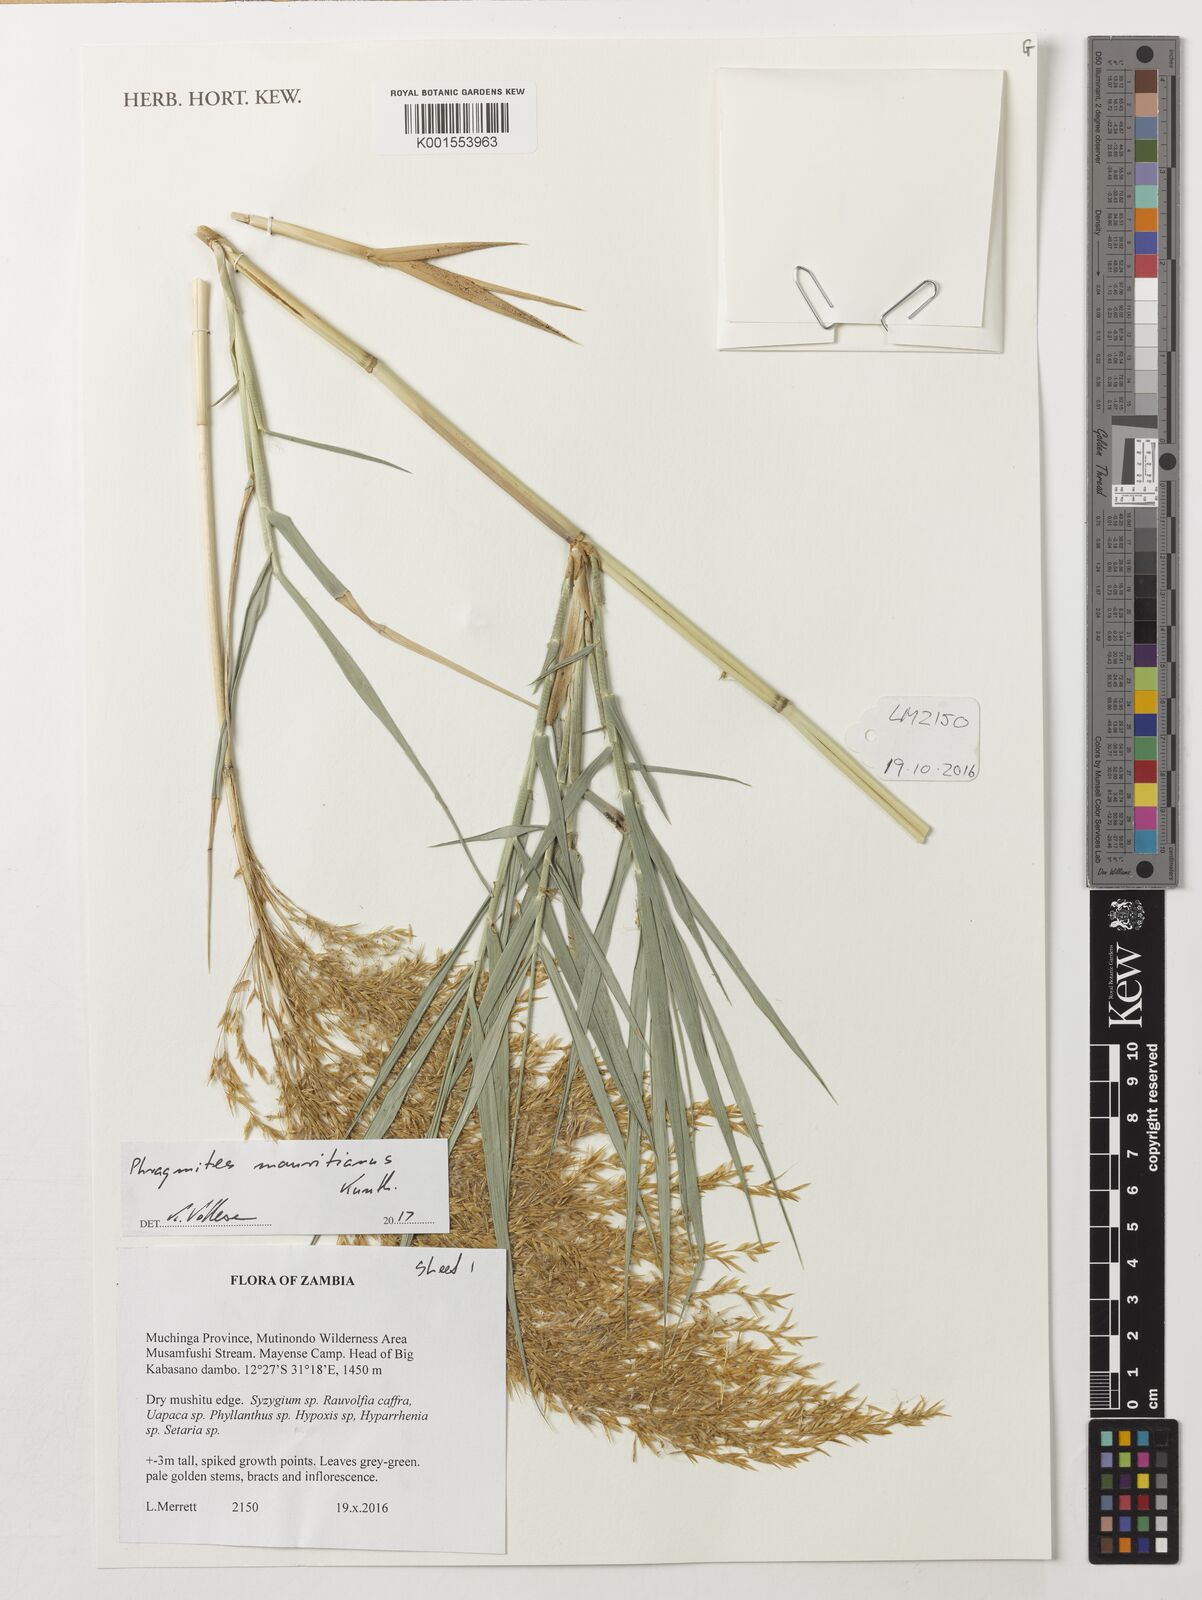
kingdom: Plantae
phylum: Tracheophyta
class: Liliopsida
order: Poales
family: Poaceae
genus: Phragmites
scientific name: Phragmites mauritianus
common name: Reed grass
